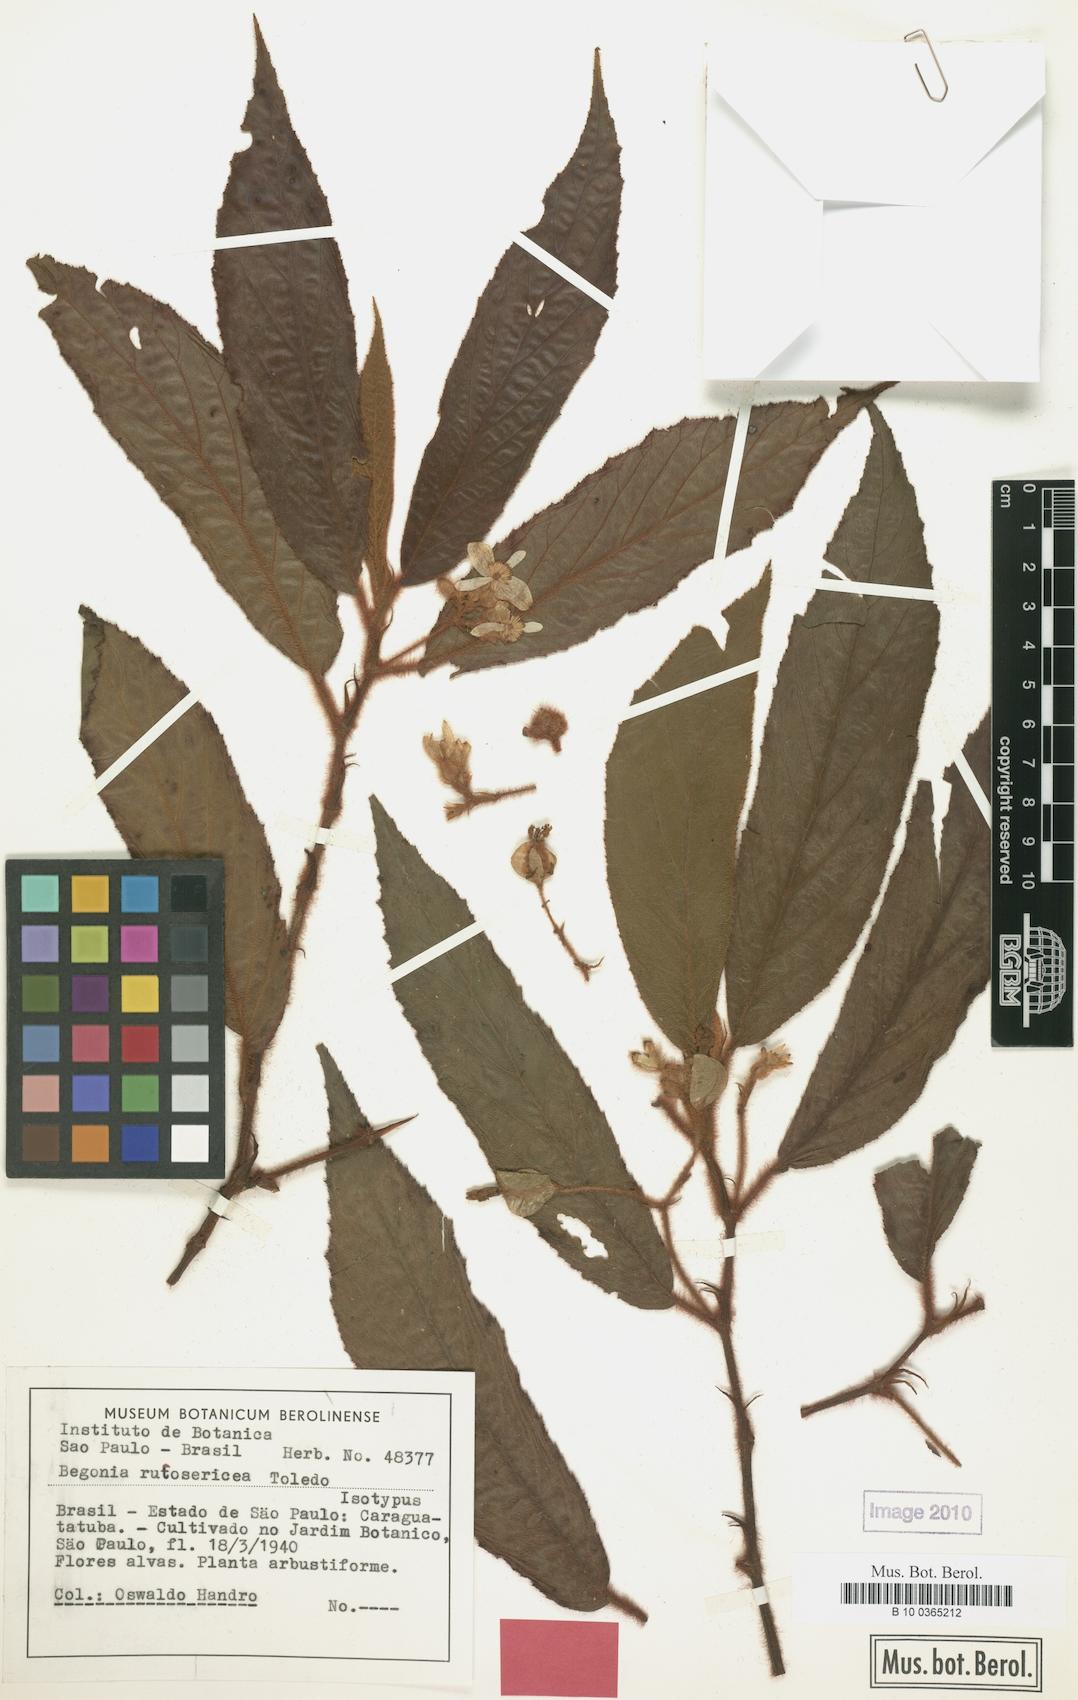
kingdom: Plantae
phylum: Tracheophyta
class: Magnoliopsida
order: Cucurbitales
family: Begoniaceae
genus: Begonia
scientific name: Begonia rufosericea
